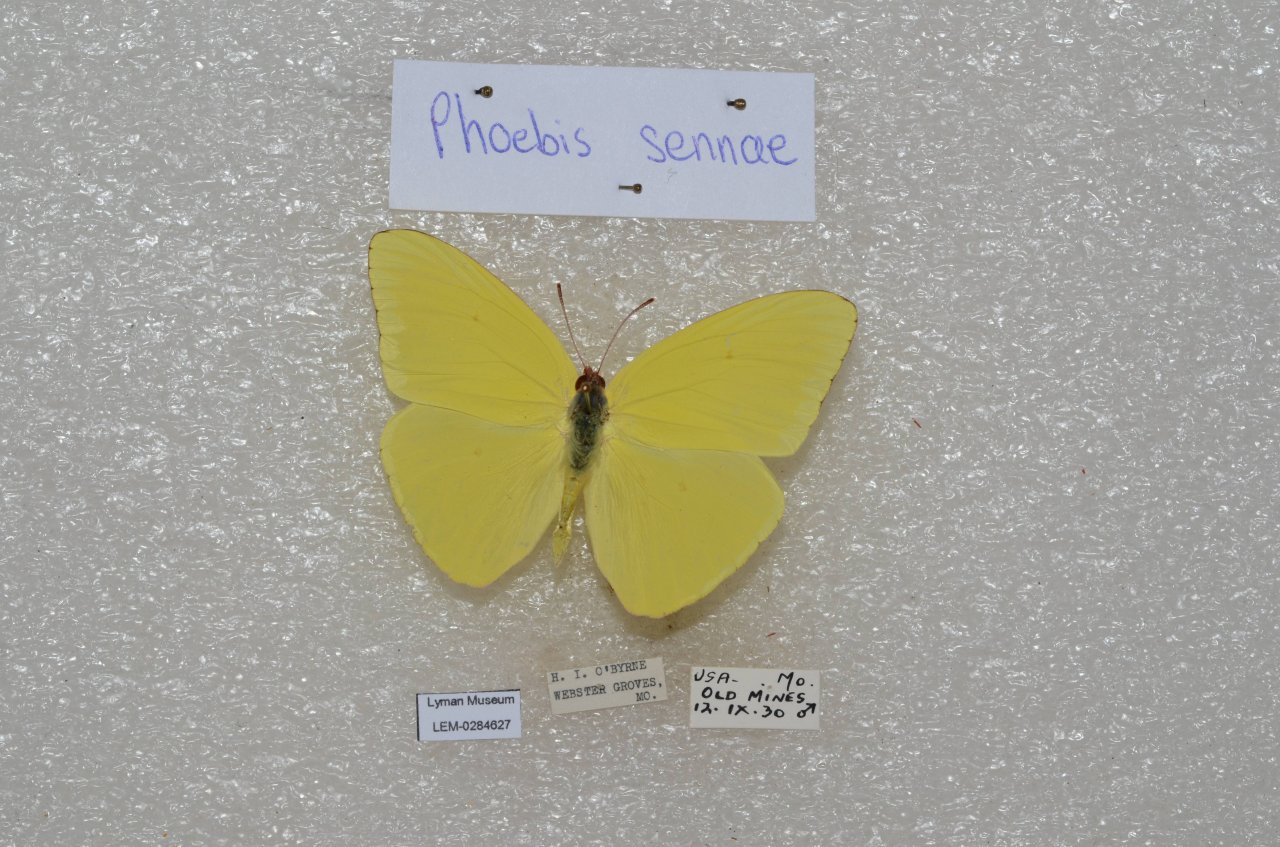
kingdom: Animalia
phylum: Arthropoda
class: Insecta
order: Lepidoptera
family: Pieridae
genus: Phoebis
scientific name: Phoebis sennae
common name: Cloudless Sulphur
